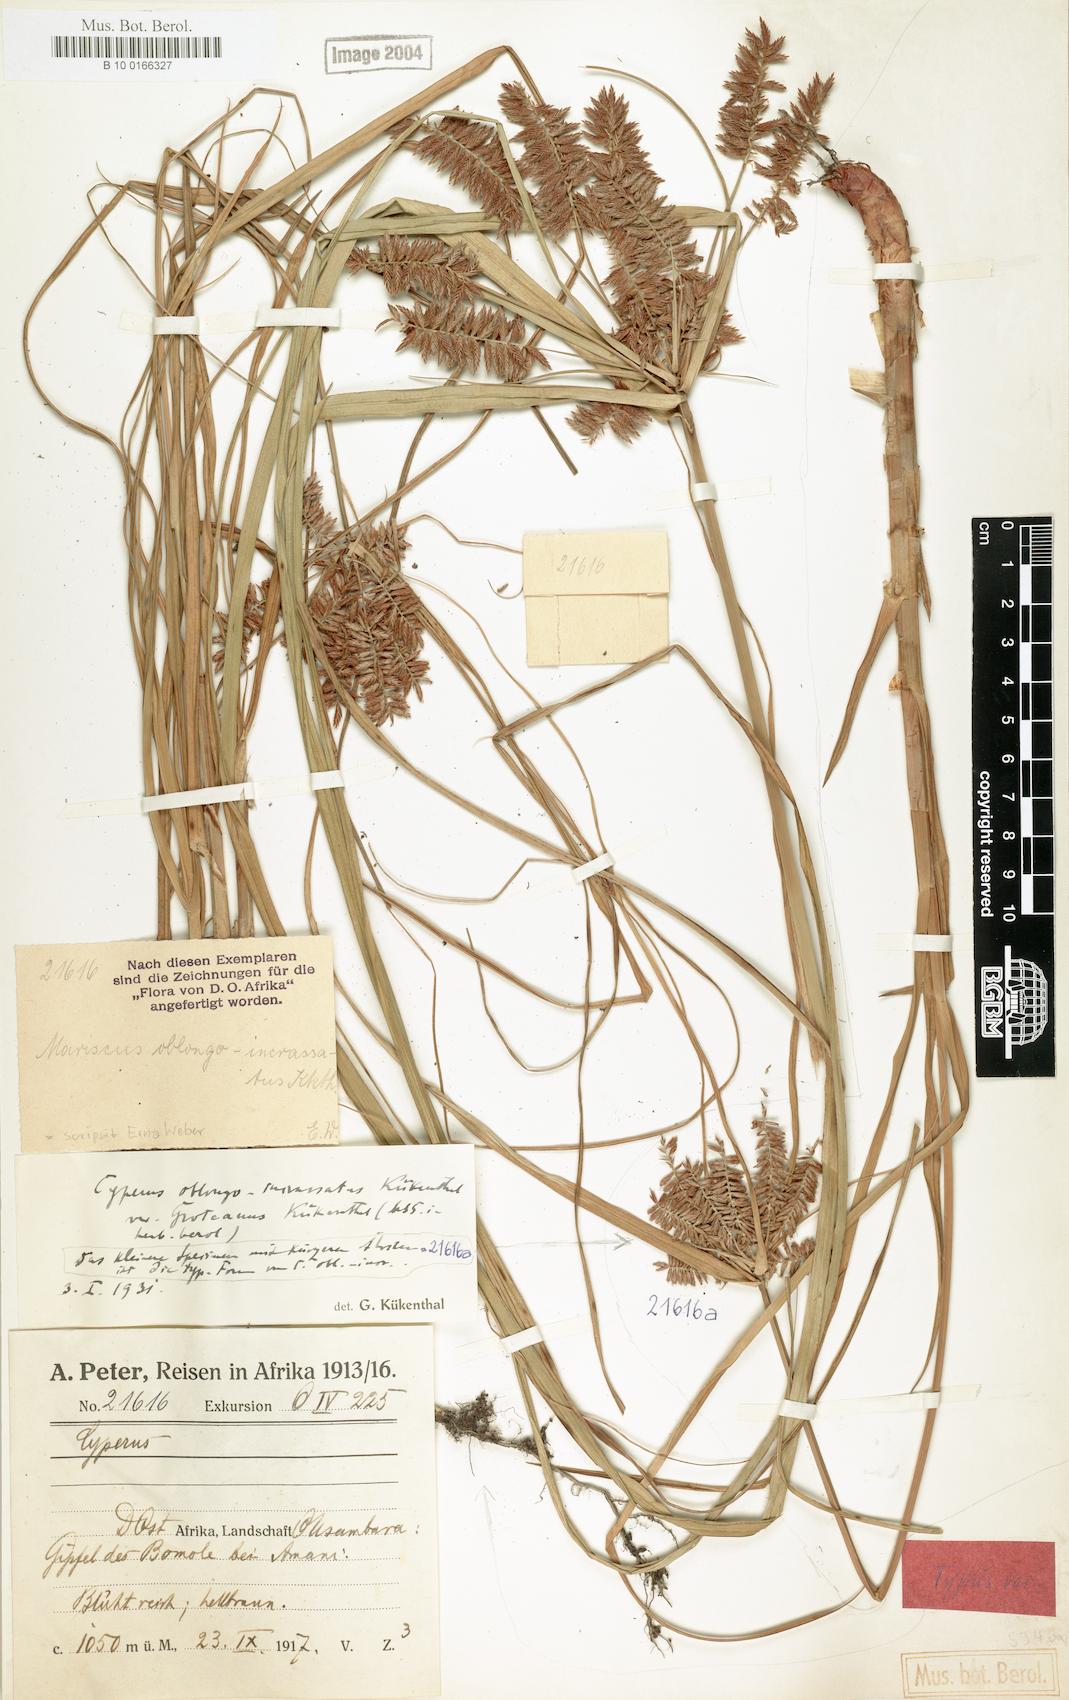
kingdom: Plantae
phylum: Tracheophyta
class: Liliopsida
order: Poales
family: Cyperaceae
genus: Cyperus
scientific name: Cyperus oblongoincrassatus
